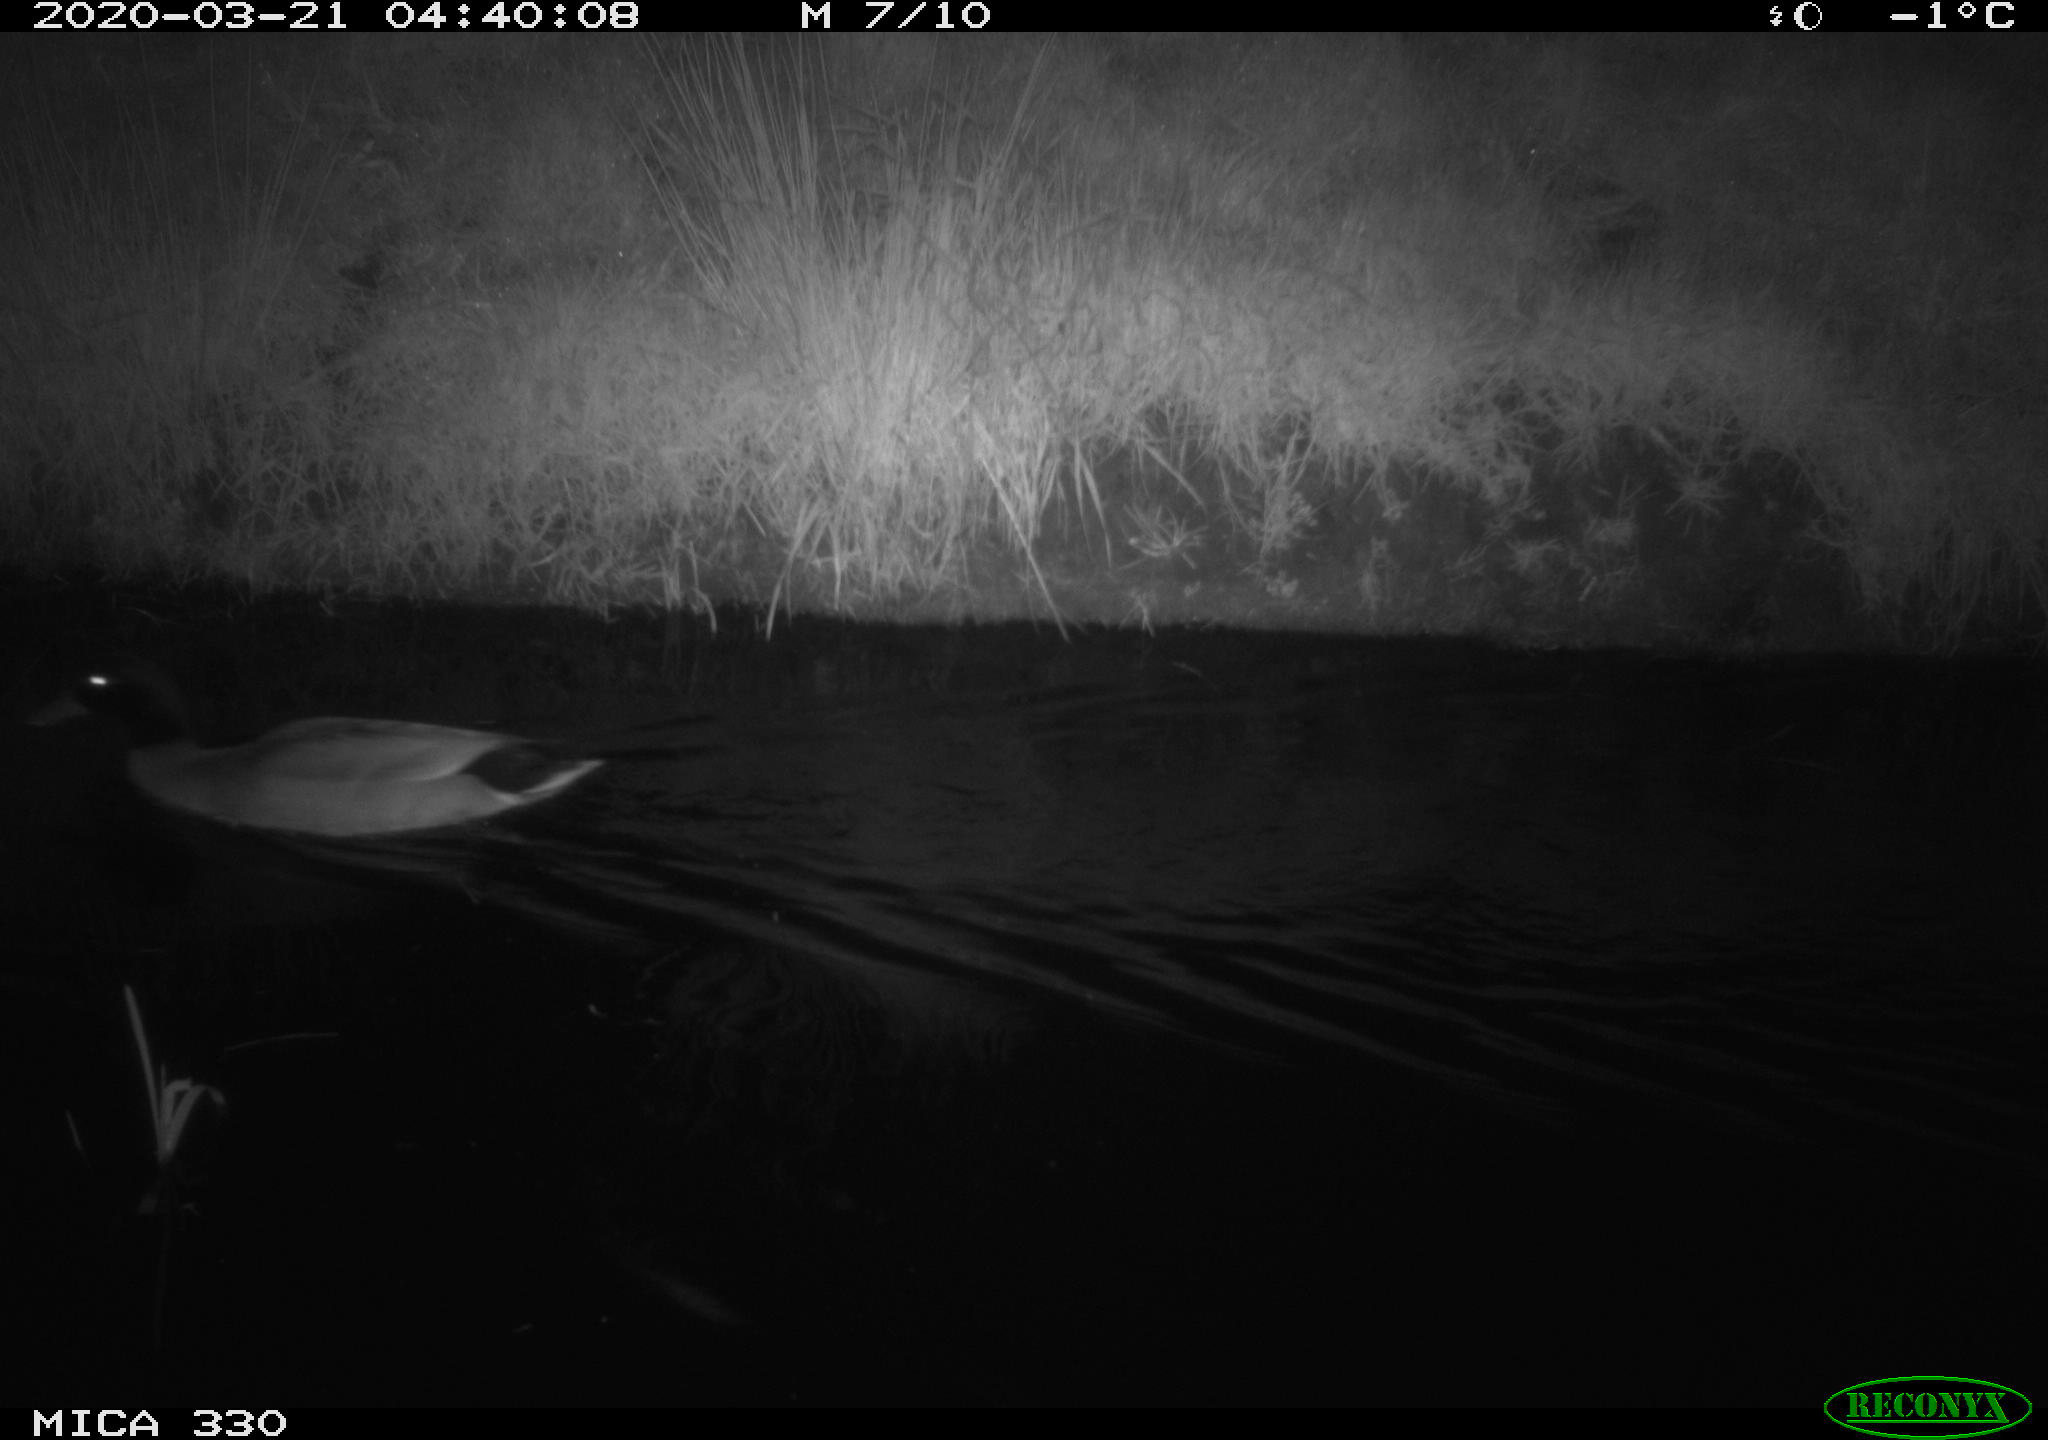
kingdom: Animalia
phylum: Chordata
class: Aves
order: Anseriformes
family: Anatidae
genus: Anas
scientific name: Anas platyrhynchos
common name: Mallard
